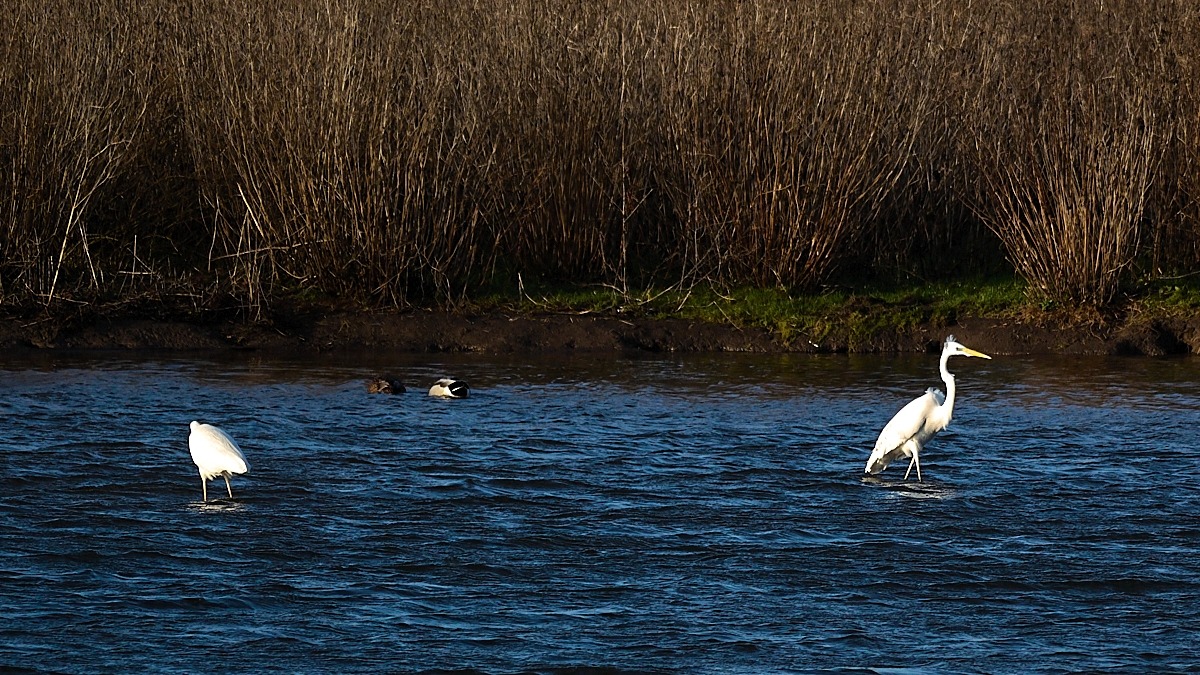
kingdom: Animalia
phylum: Chordata
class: Aves
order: Pelecaniformes
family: Ardeidae
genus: Ardea
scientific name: Ardea alba
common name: Sølvhejre
